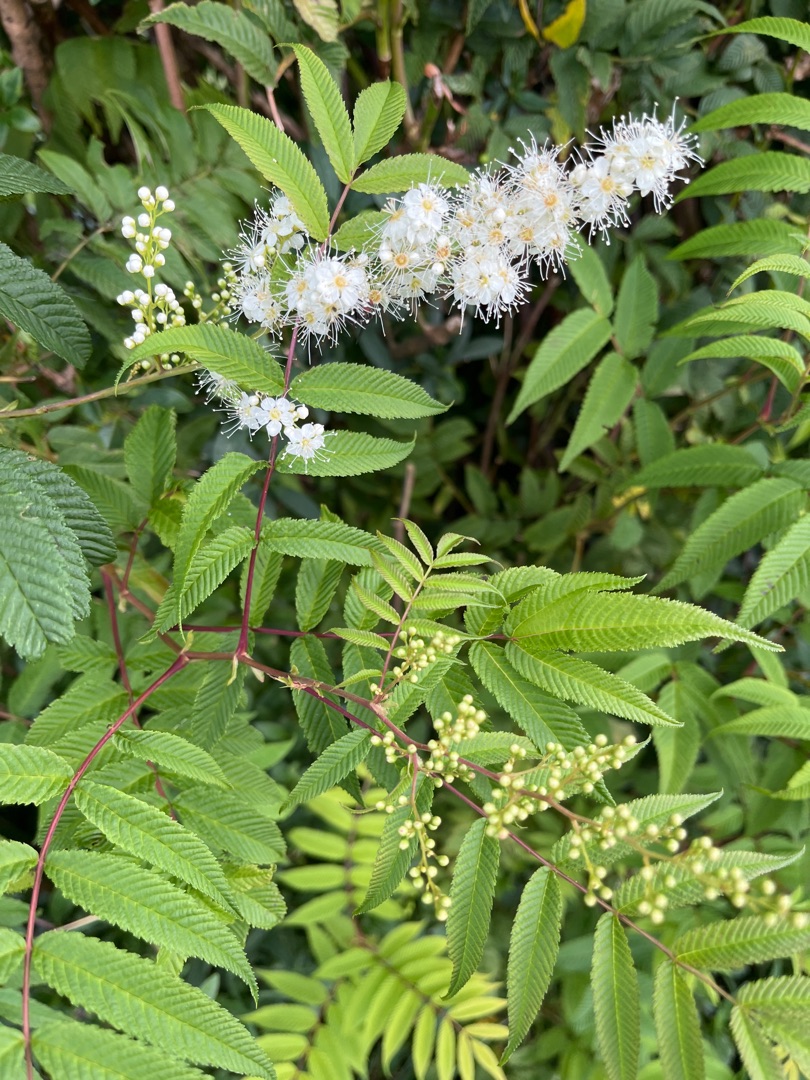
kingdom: Plantae
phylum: Tracheophyta
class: Magnoliopsida
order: Rosales
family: Rosaceae
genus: Sorbaria
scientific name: Sorbaria kirilowii
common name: Kinesisk tusindtop
